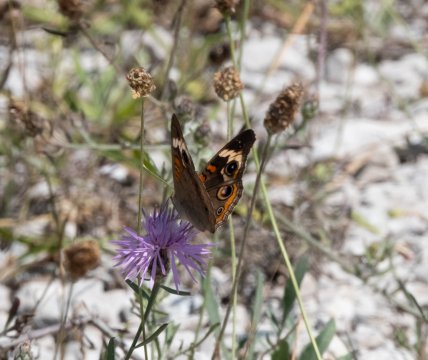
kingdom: Animalia
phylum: Arthropoda
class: Insecta
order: Lepidoptera
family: Nymphalidae
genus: Junonia
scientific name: Junonia coenia
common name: Common Buckeye
